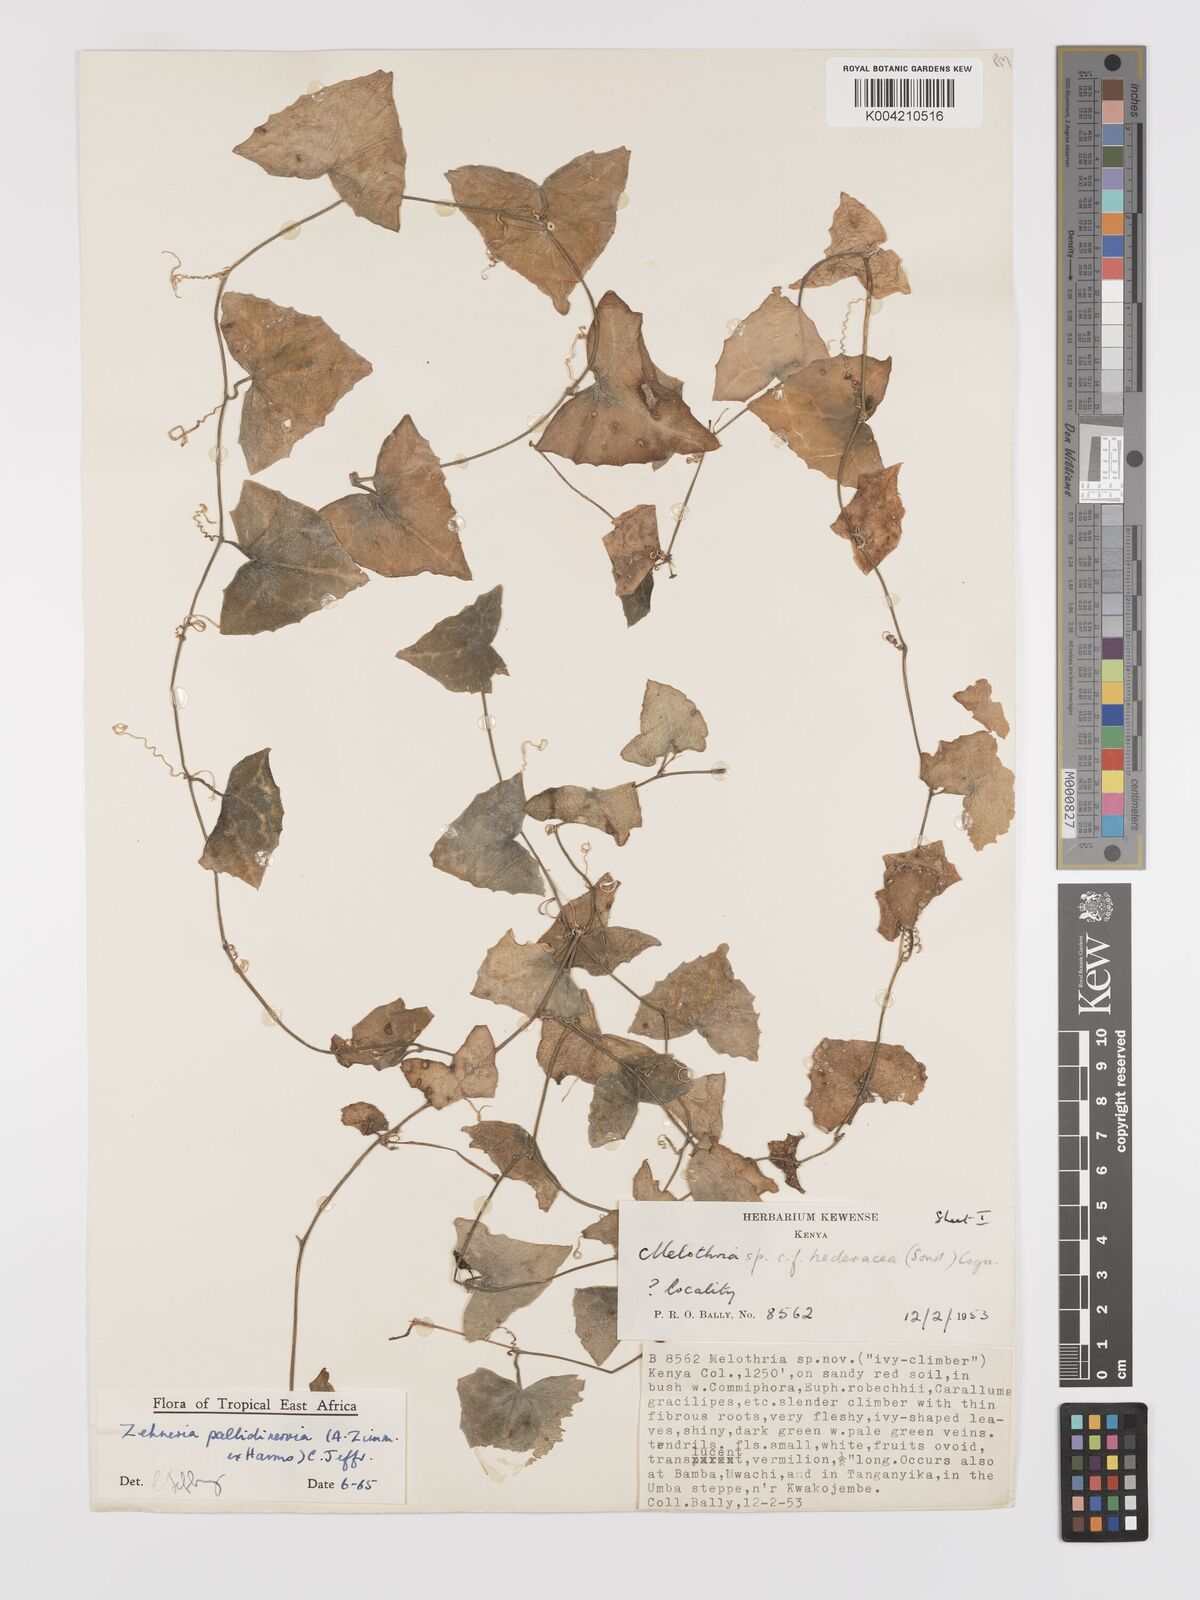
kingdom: Plantae
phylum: Tracheophyta
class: Magnoliopsida
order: Cucurbitales
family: Cucurbitaceae
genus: Zehneria
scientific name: Zehneria pallidinervia
